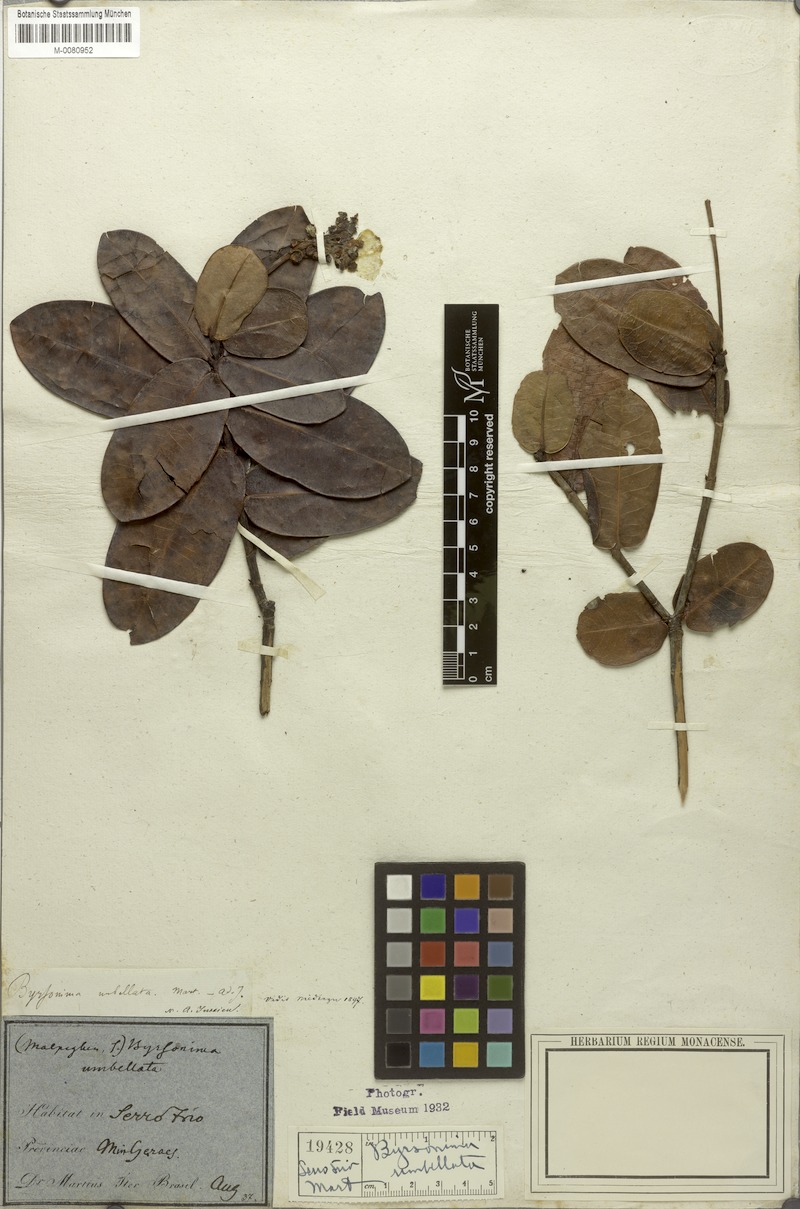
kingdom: Plantae
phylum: Tracheophyta
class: Magnoliopsida
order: Malpighiales
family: Malpighiaceae
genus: Byrsonima
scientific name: Byrsonima umbellata
